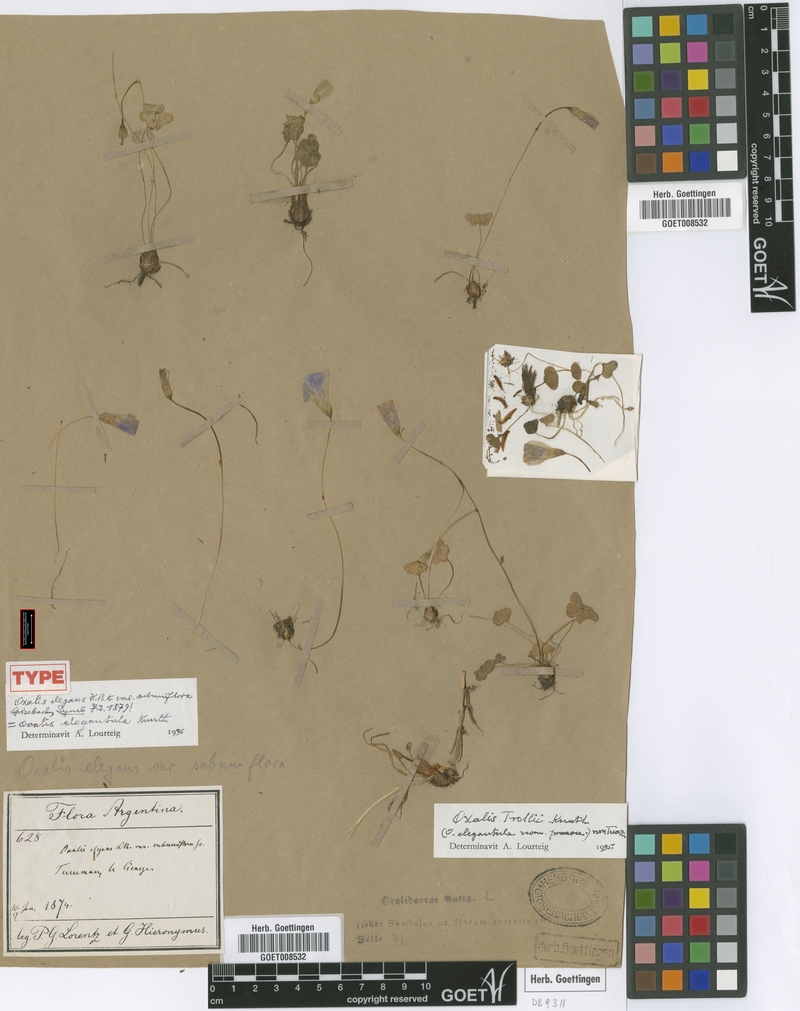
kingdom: Plantae
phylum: Tracheophyta
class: Magnoliopsida
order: Oxalidales
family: Oxalidaceae
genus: Oxalis
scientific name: Oxalis trollii
